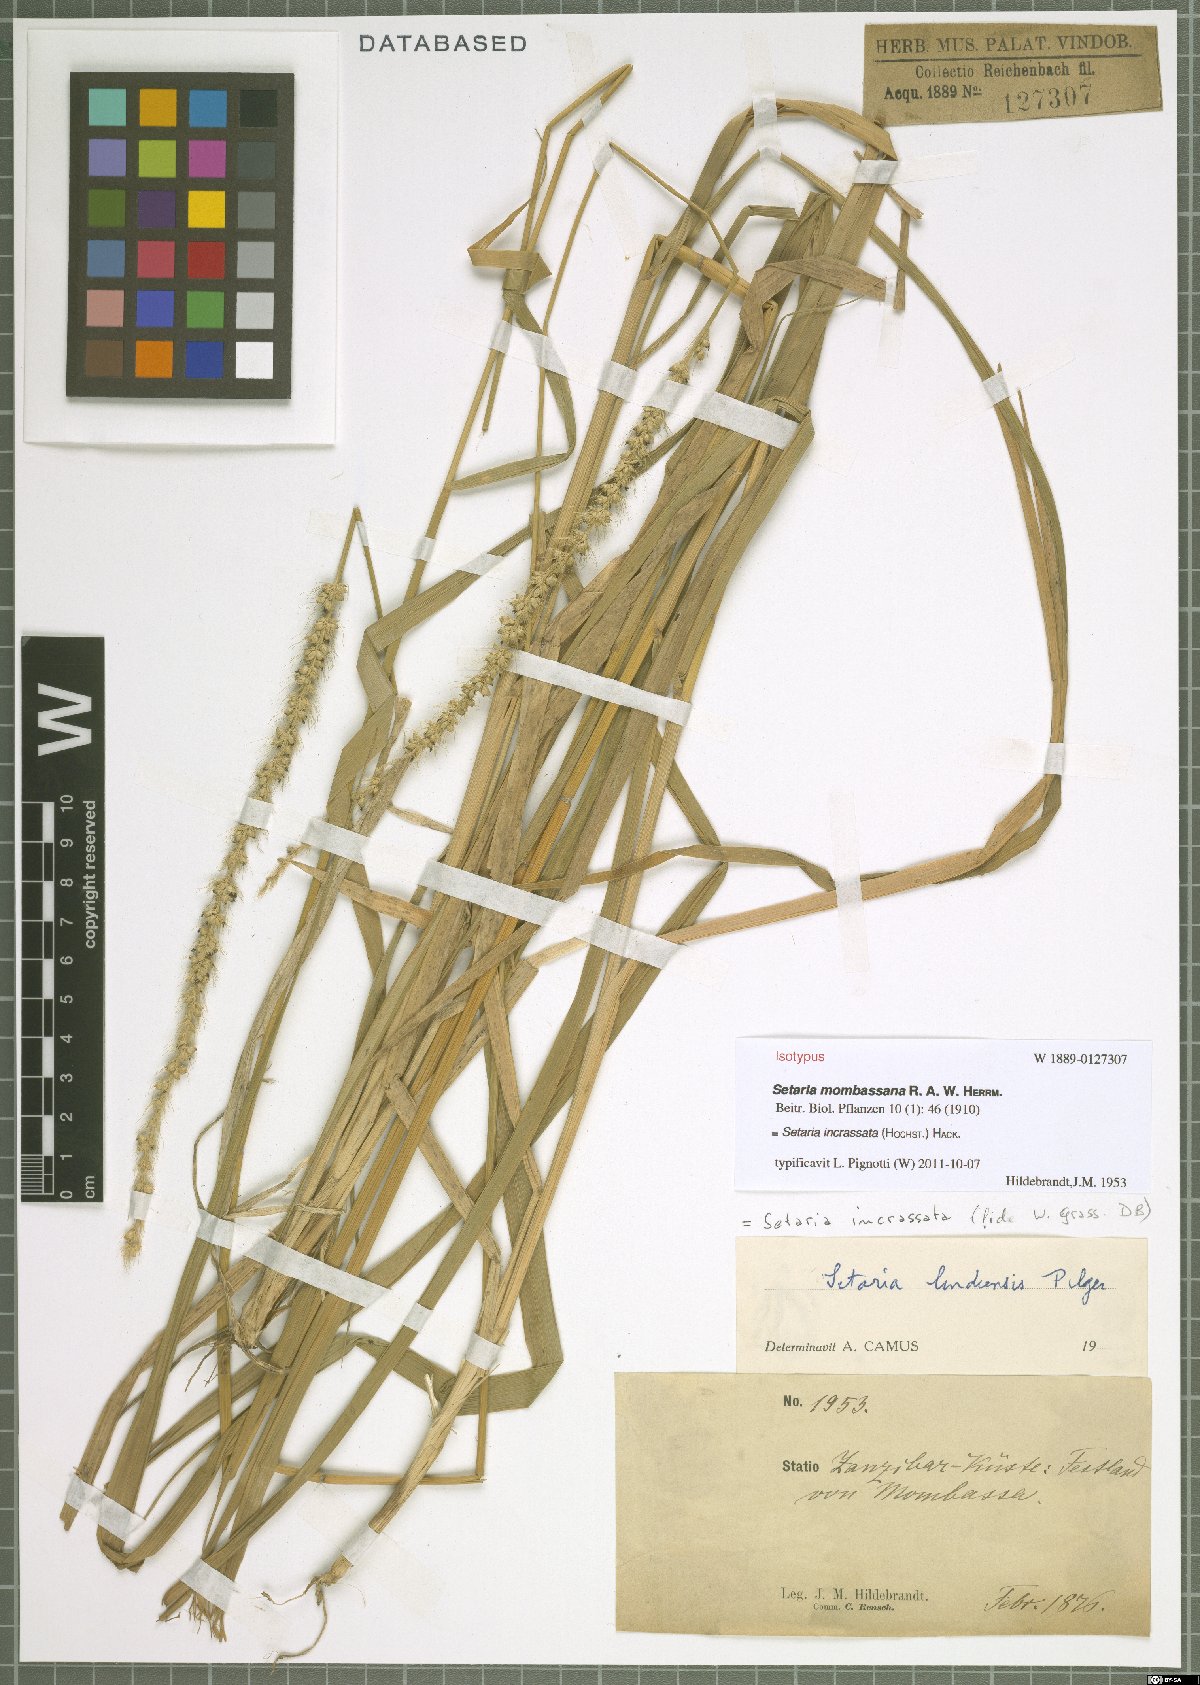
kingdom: Plantae
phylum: Tracheophyta
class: Liliopsida
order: Poales
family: Poaceae
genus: Setaria
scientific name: Setaria incrassata
